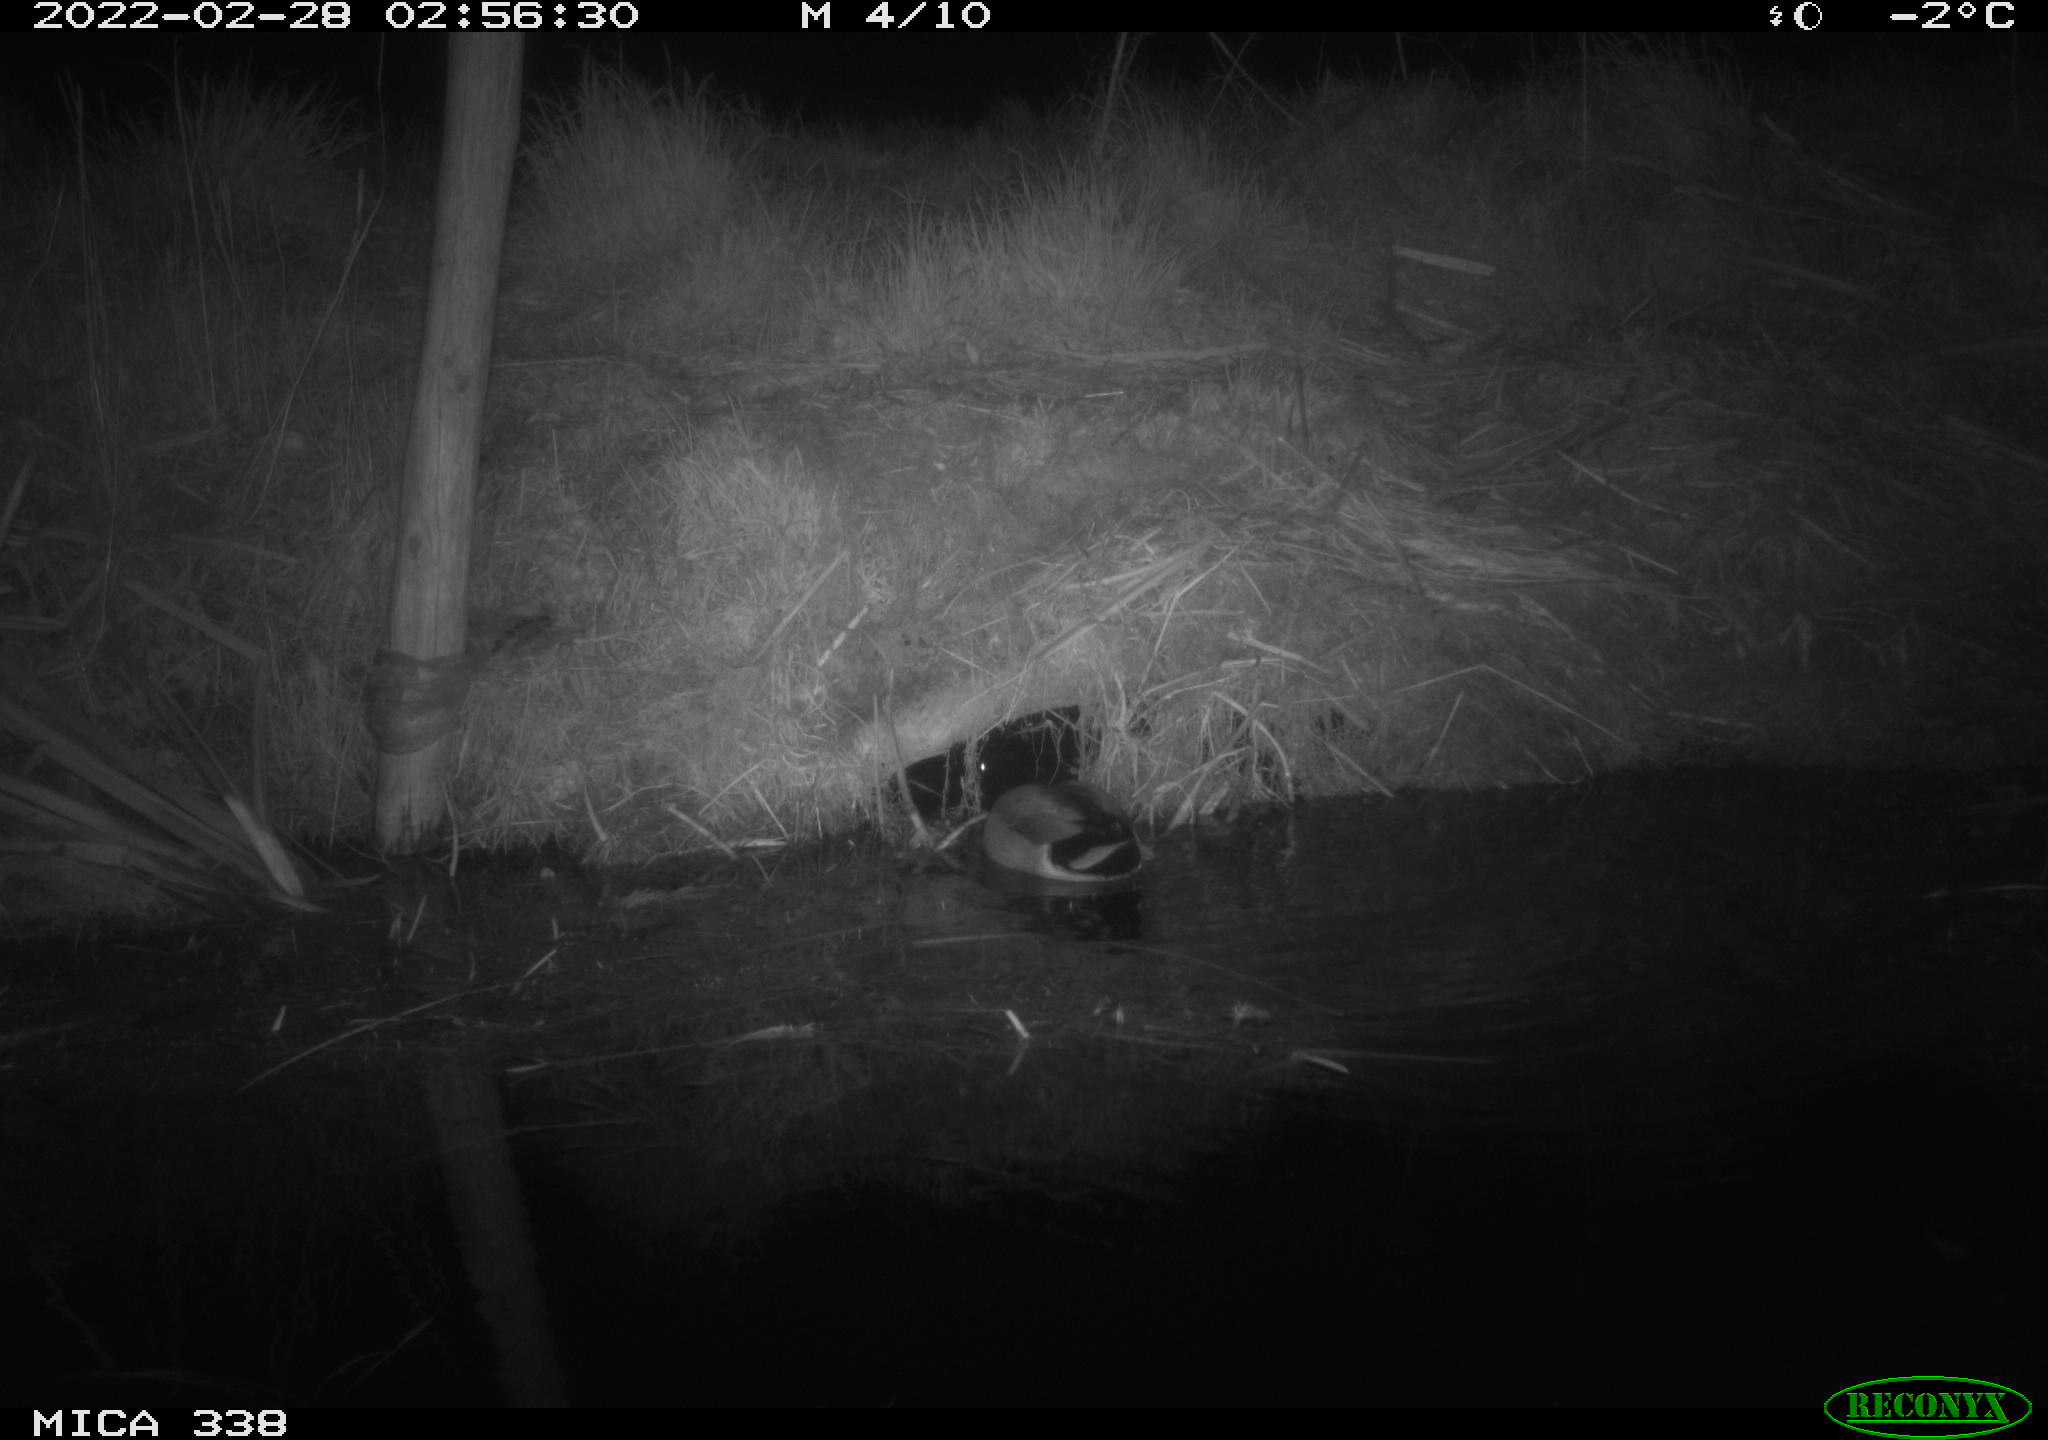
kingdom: Animalia
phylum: Chordata
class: Aves
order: Anseriformes
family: Anatidae
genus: Anas
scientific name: Anas platyrhynchos
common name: Mallard
